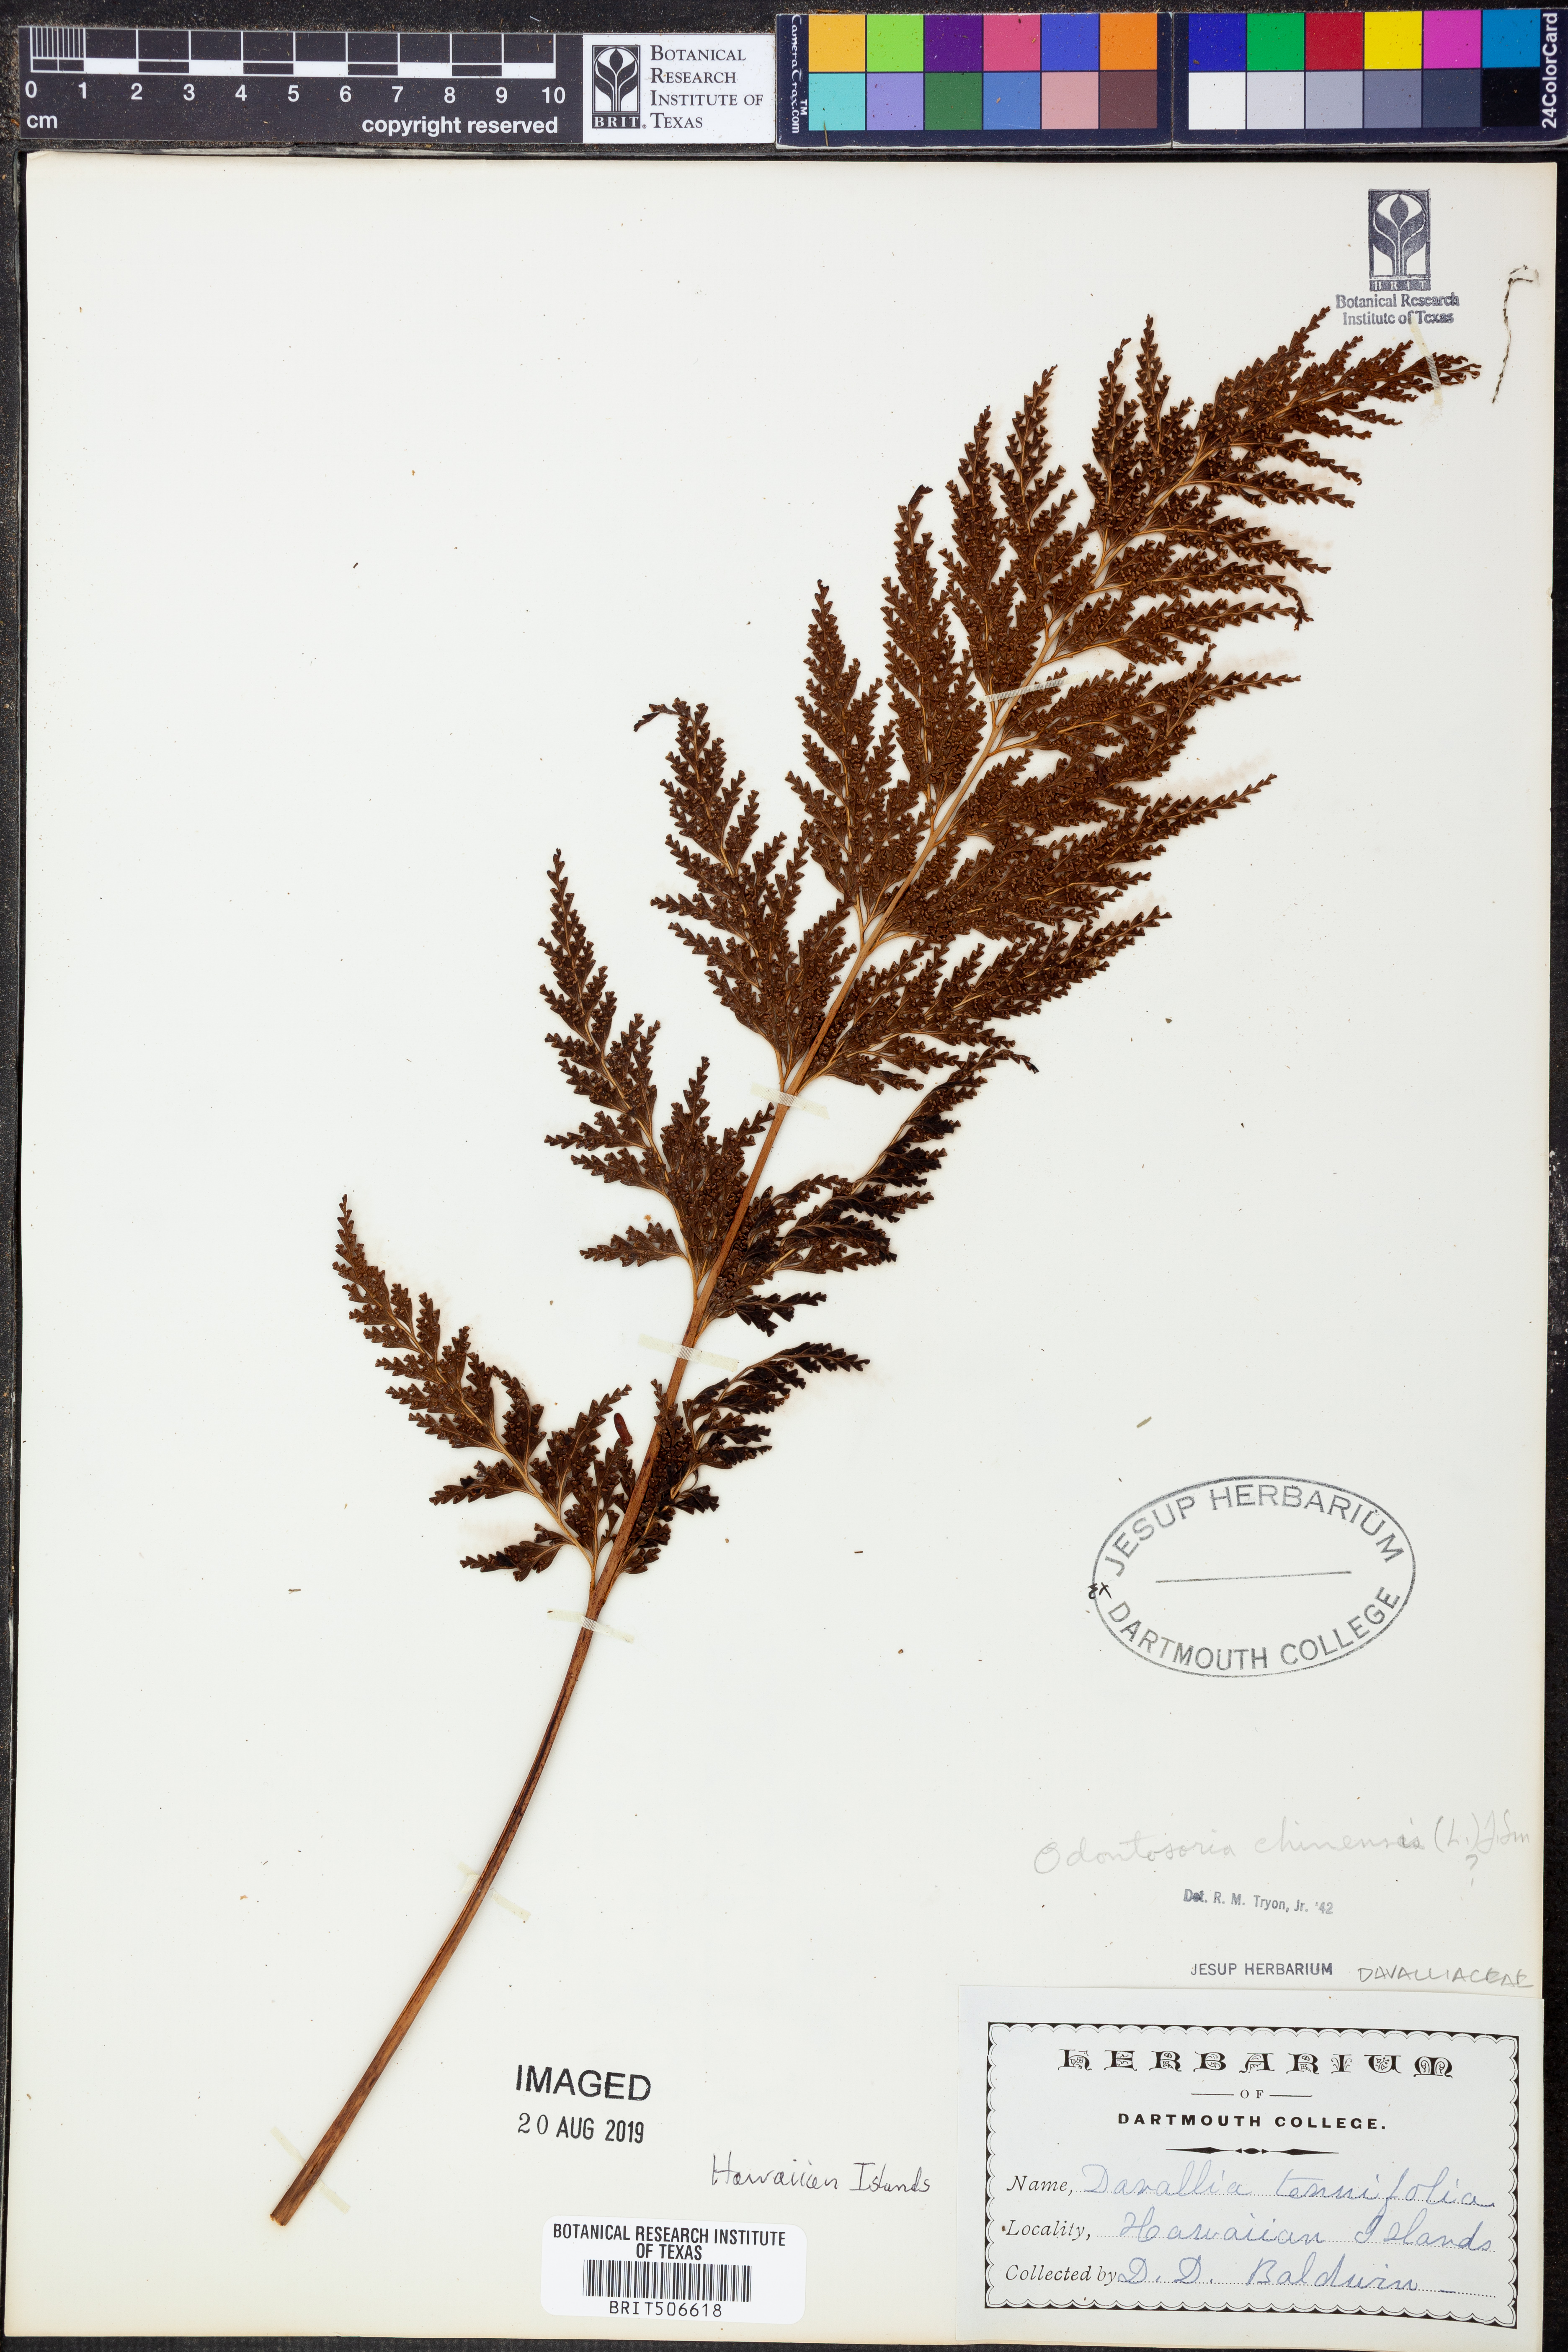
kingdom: Plantae
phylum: Tracheophyta
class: Polypodiopsida
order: Polypodiales
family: Lindsaeaceae
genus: Odontosoria
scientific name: Odontosoria chinensis
